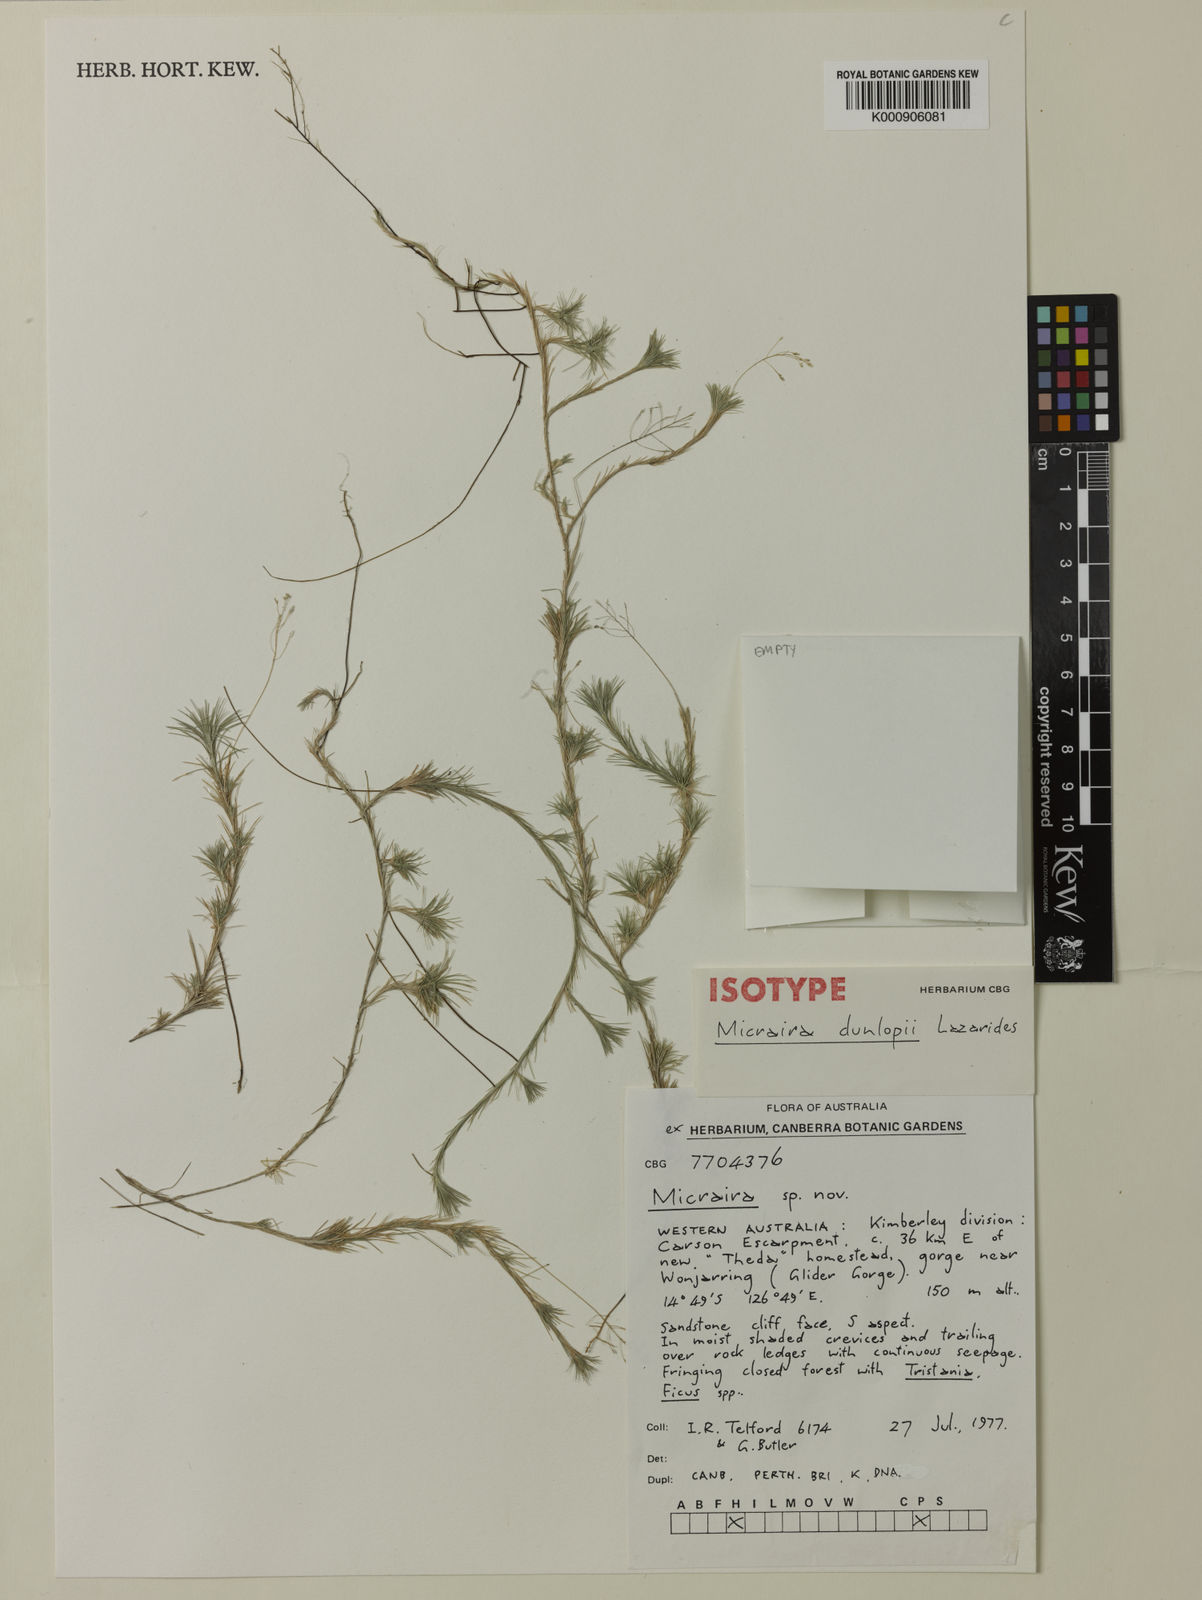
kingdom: Plantae
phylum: Tracheophyta
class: Liliopsida
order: Poales
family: Poaceae
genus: Micraira
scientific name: Micraira dunlopii
